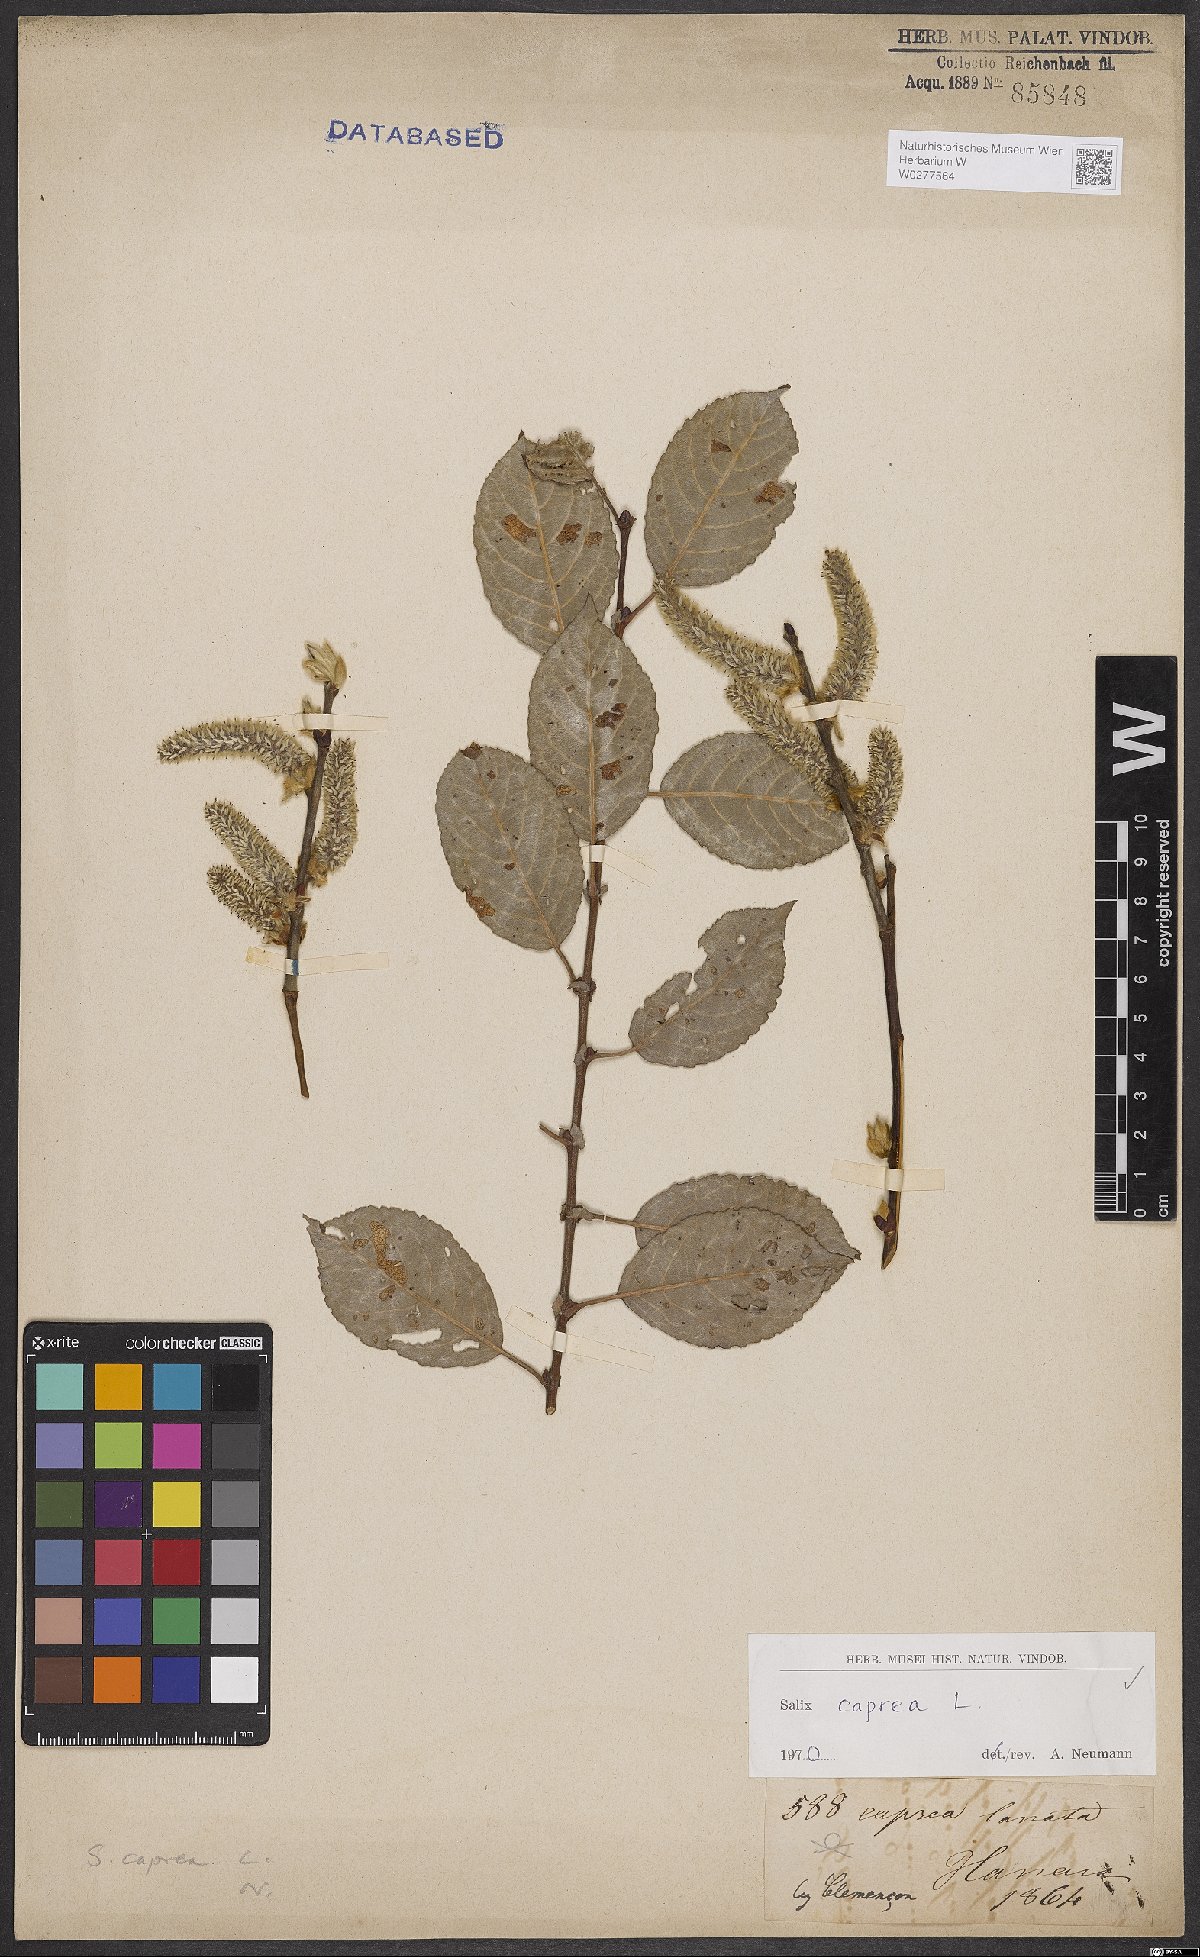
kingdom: Plantae
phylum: Tracheophyta
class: Magnoliopsida
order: Malpighiales
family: Salicaceae
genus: Salix
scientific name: Salix caprea
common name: Goat willow
